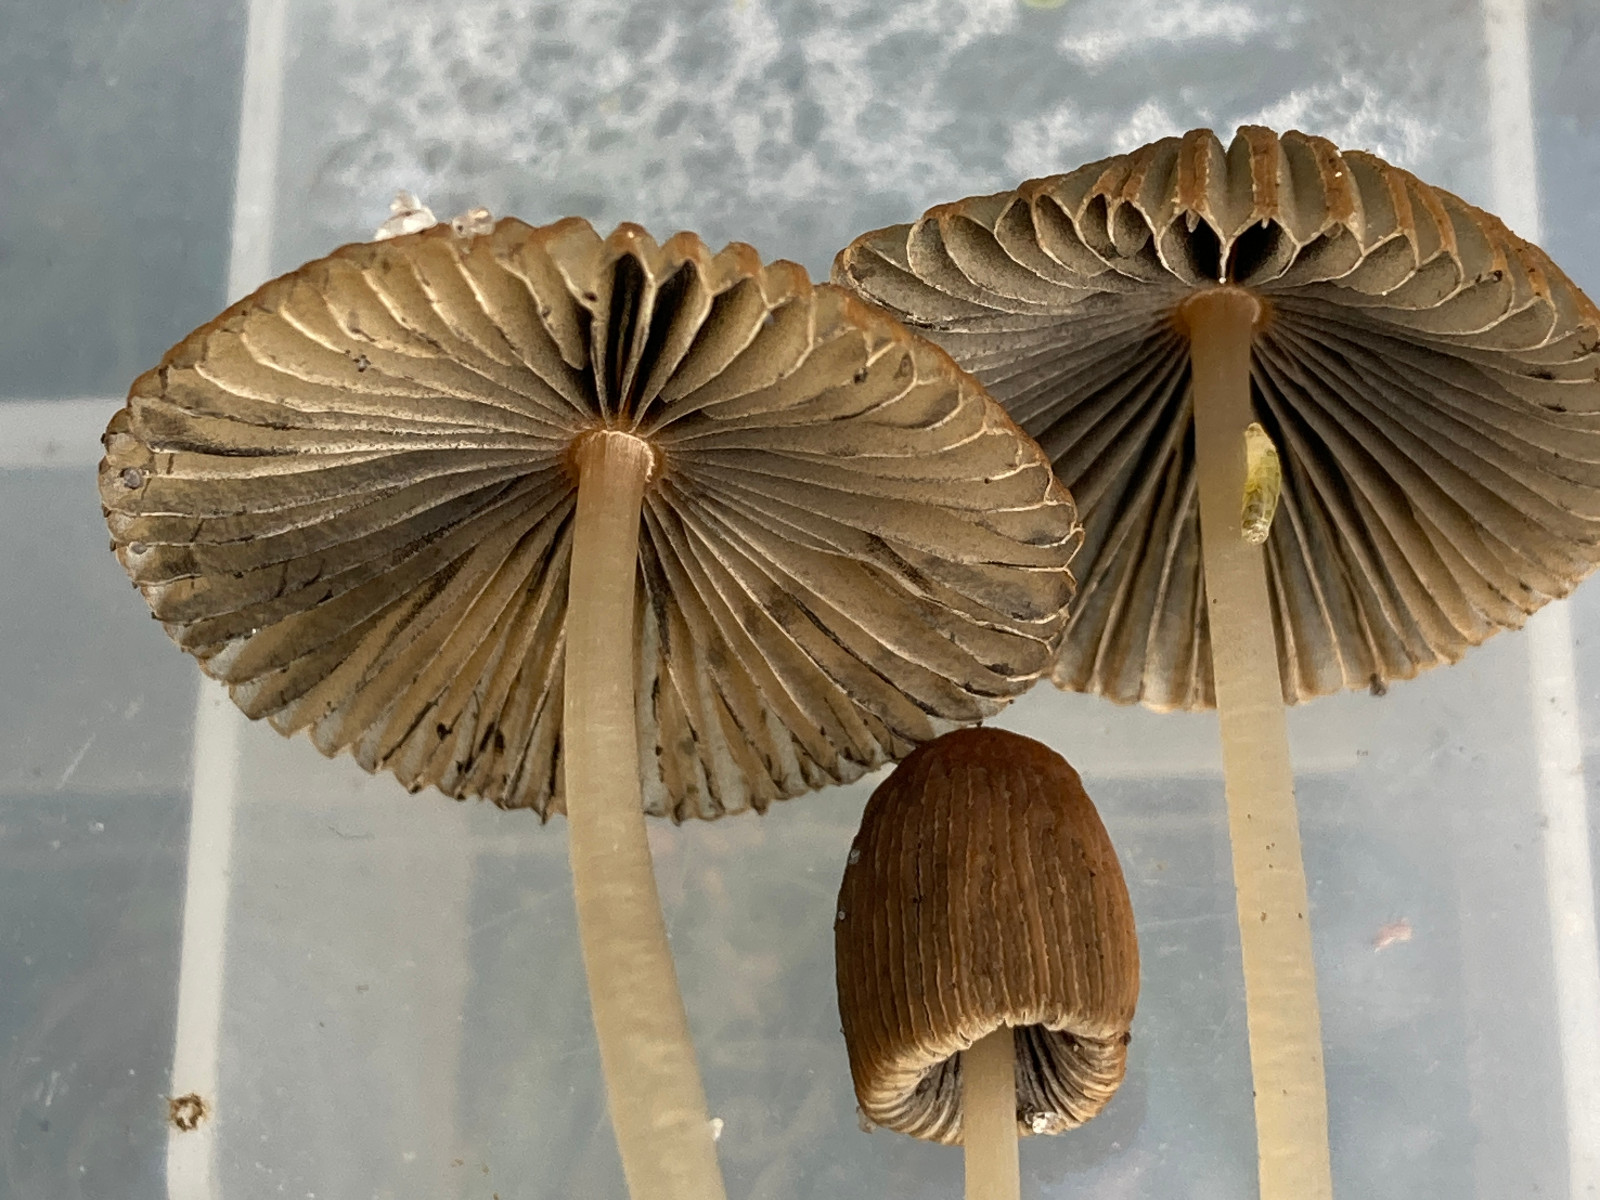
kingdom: Fungi
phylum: Basidiomycota
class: Agaricomycetes
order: Agaricales
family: Psathyrellaceae
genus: Parasola
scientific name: Parasola
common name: hjulhat
